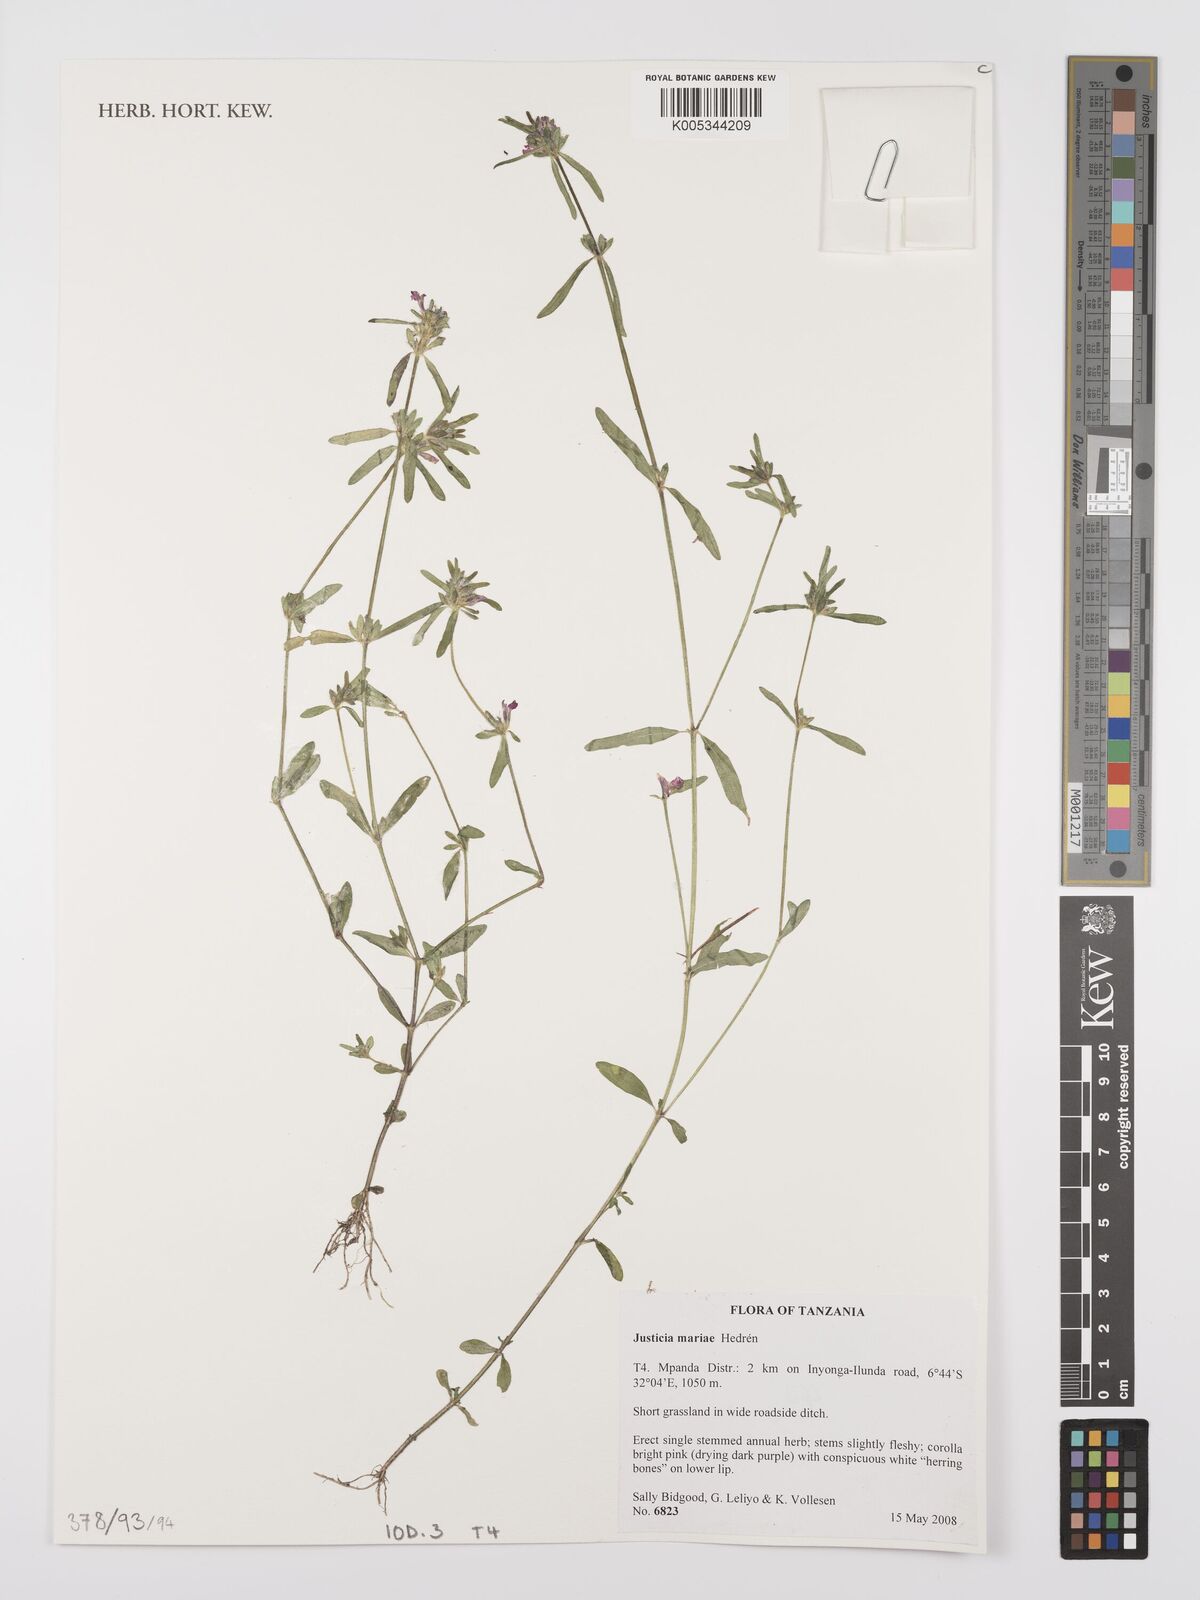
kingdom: Plantae
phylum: Tracheophyta
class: Magnoliopsida
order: Lamiales
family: Acanthaceae
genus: Justicia
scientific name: Justicia mariae
